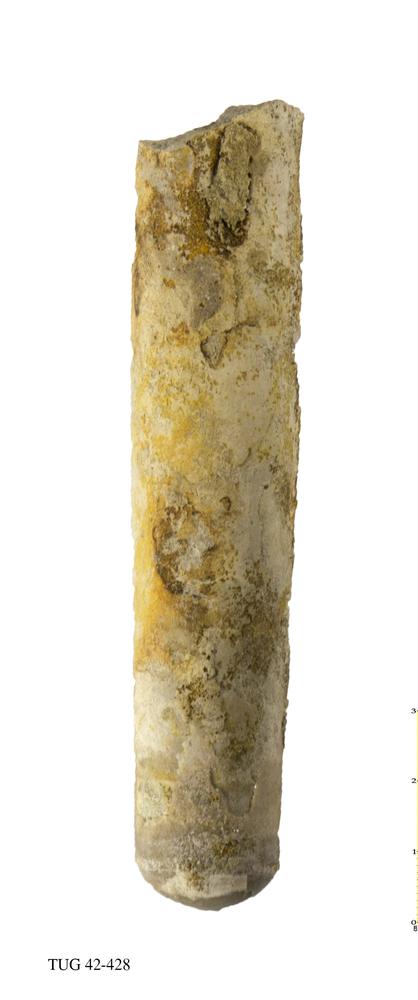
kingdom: Animalia
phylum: Mollusca
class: Cephalopoda
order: Orthocerida
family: Orthoceratidae
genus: Orthoceras
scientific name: Orthoceras regulare
